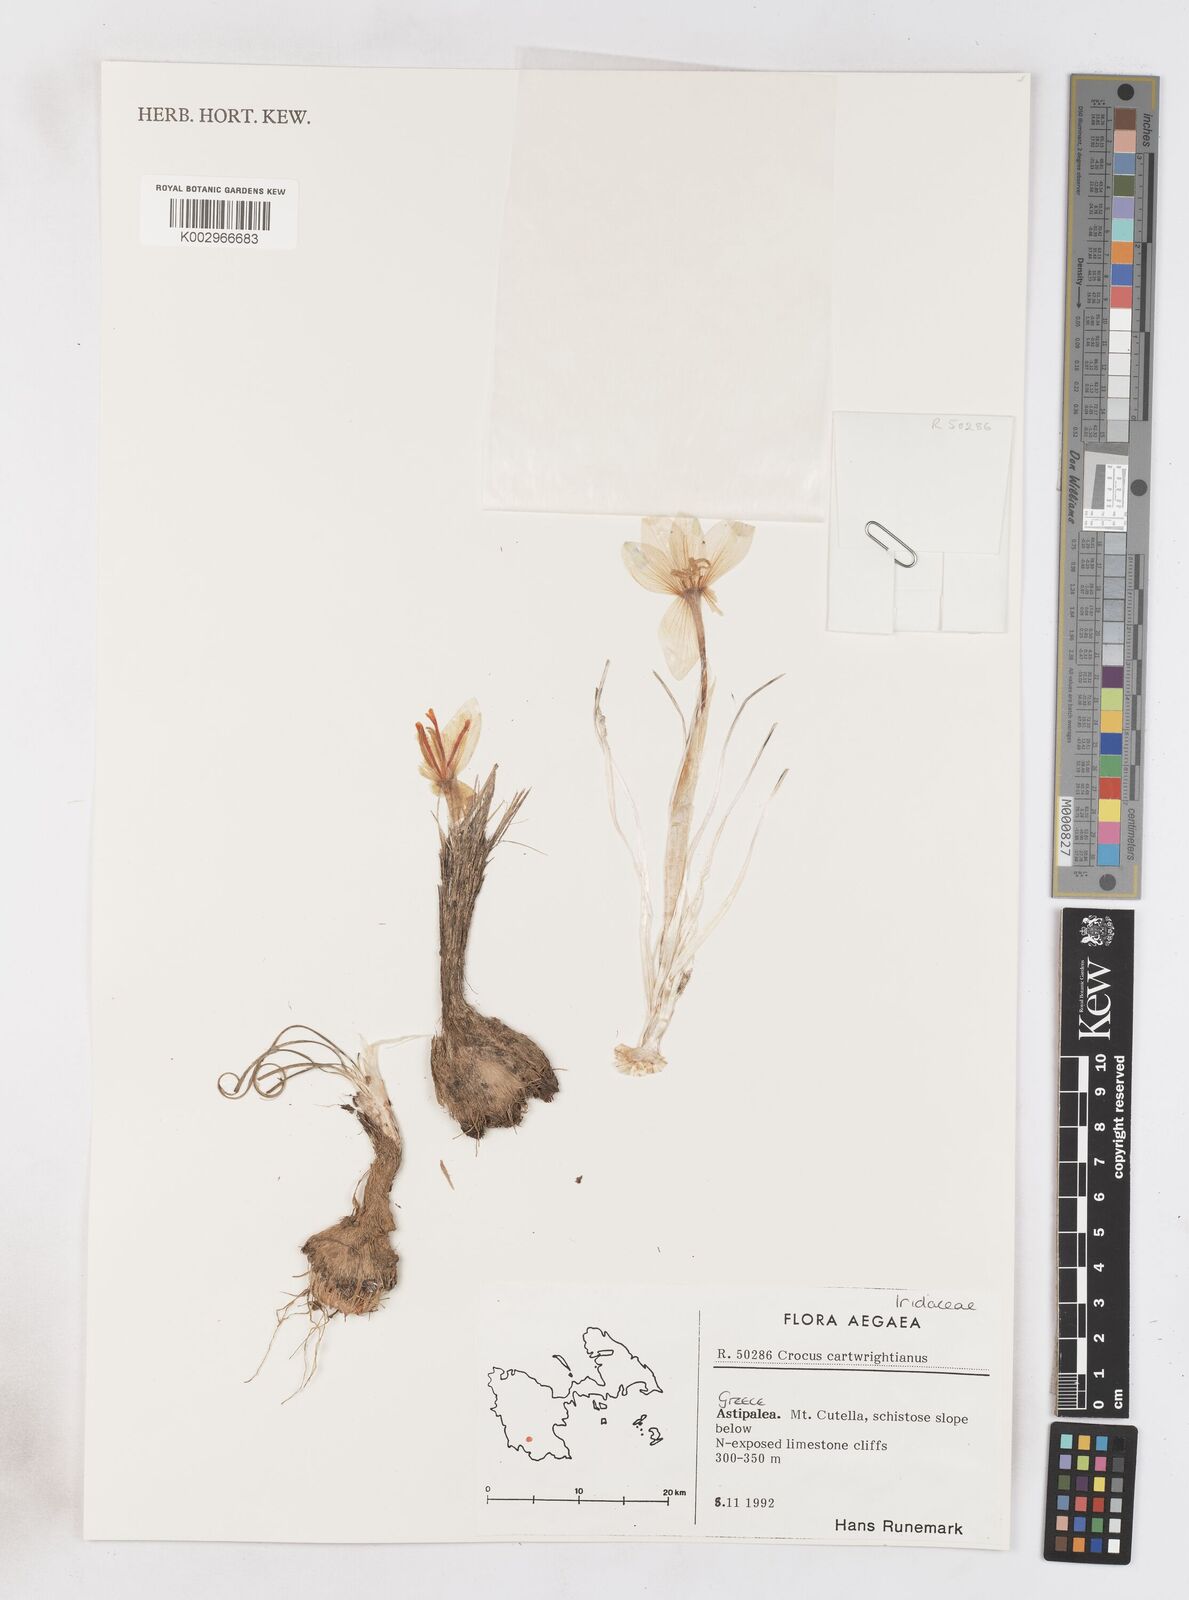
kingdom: Plantae
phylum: Tracheophyta
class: Liliopsida
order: Asparagales
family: Iridaceae
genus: Crocus
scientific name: Crocus cartwrightianus
